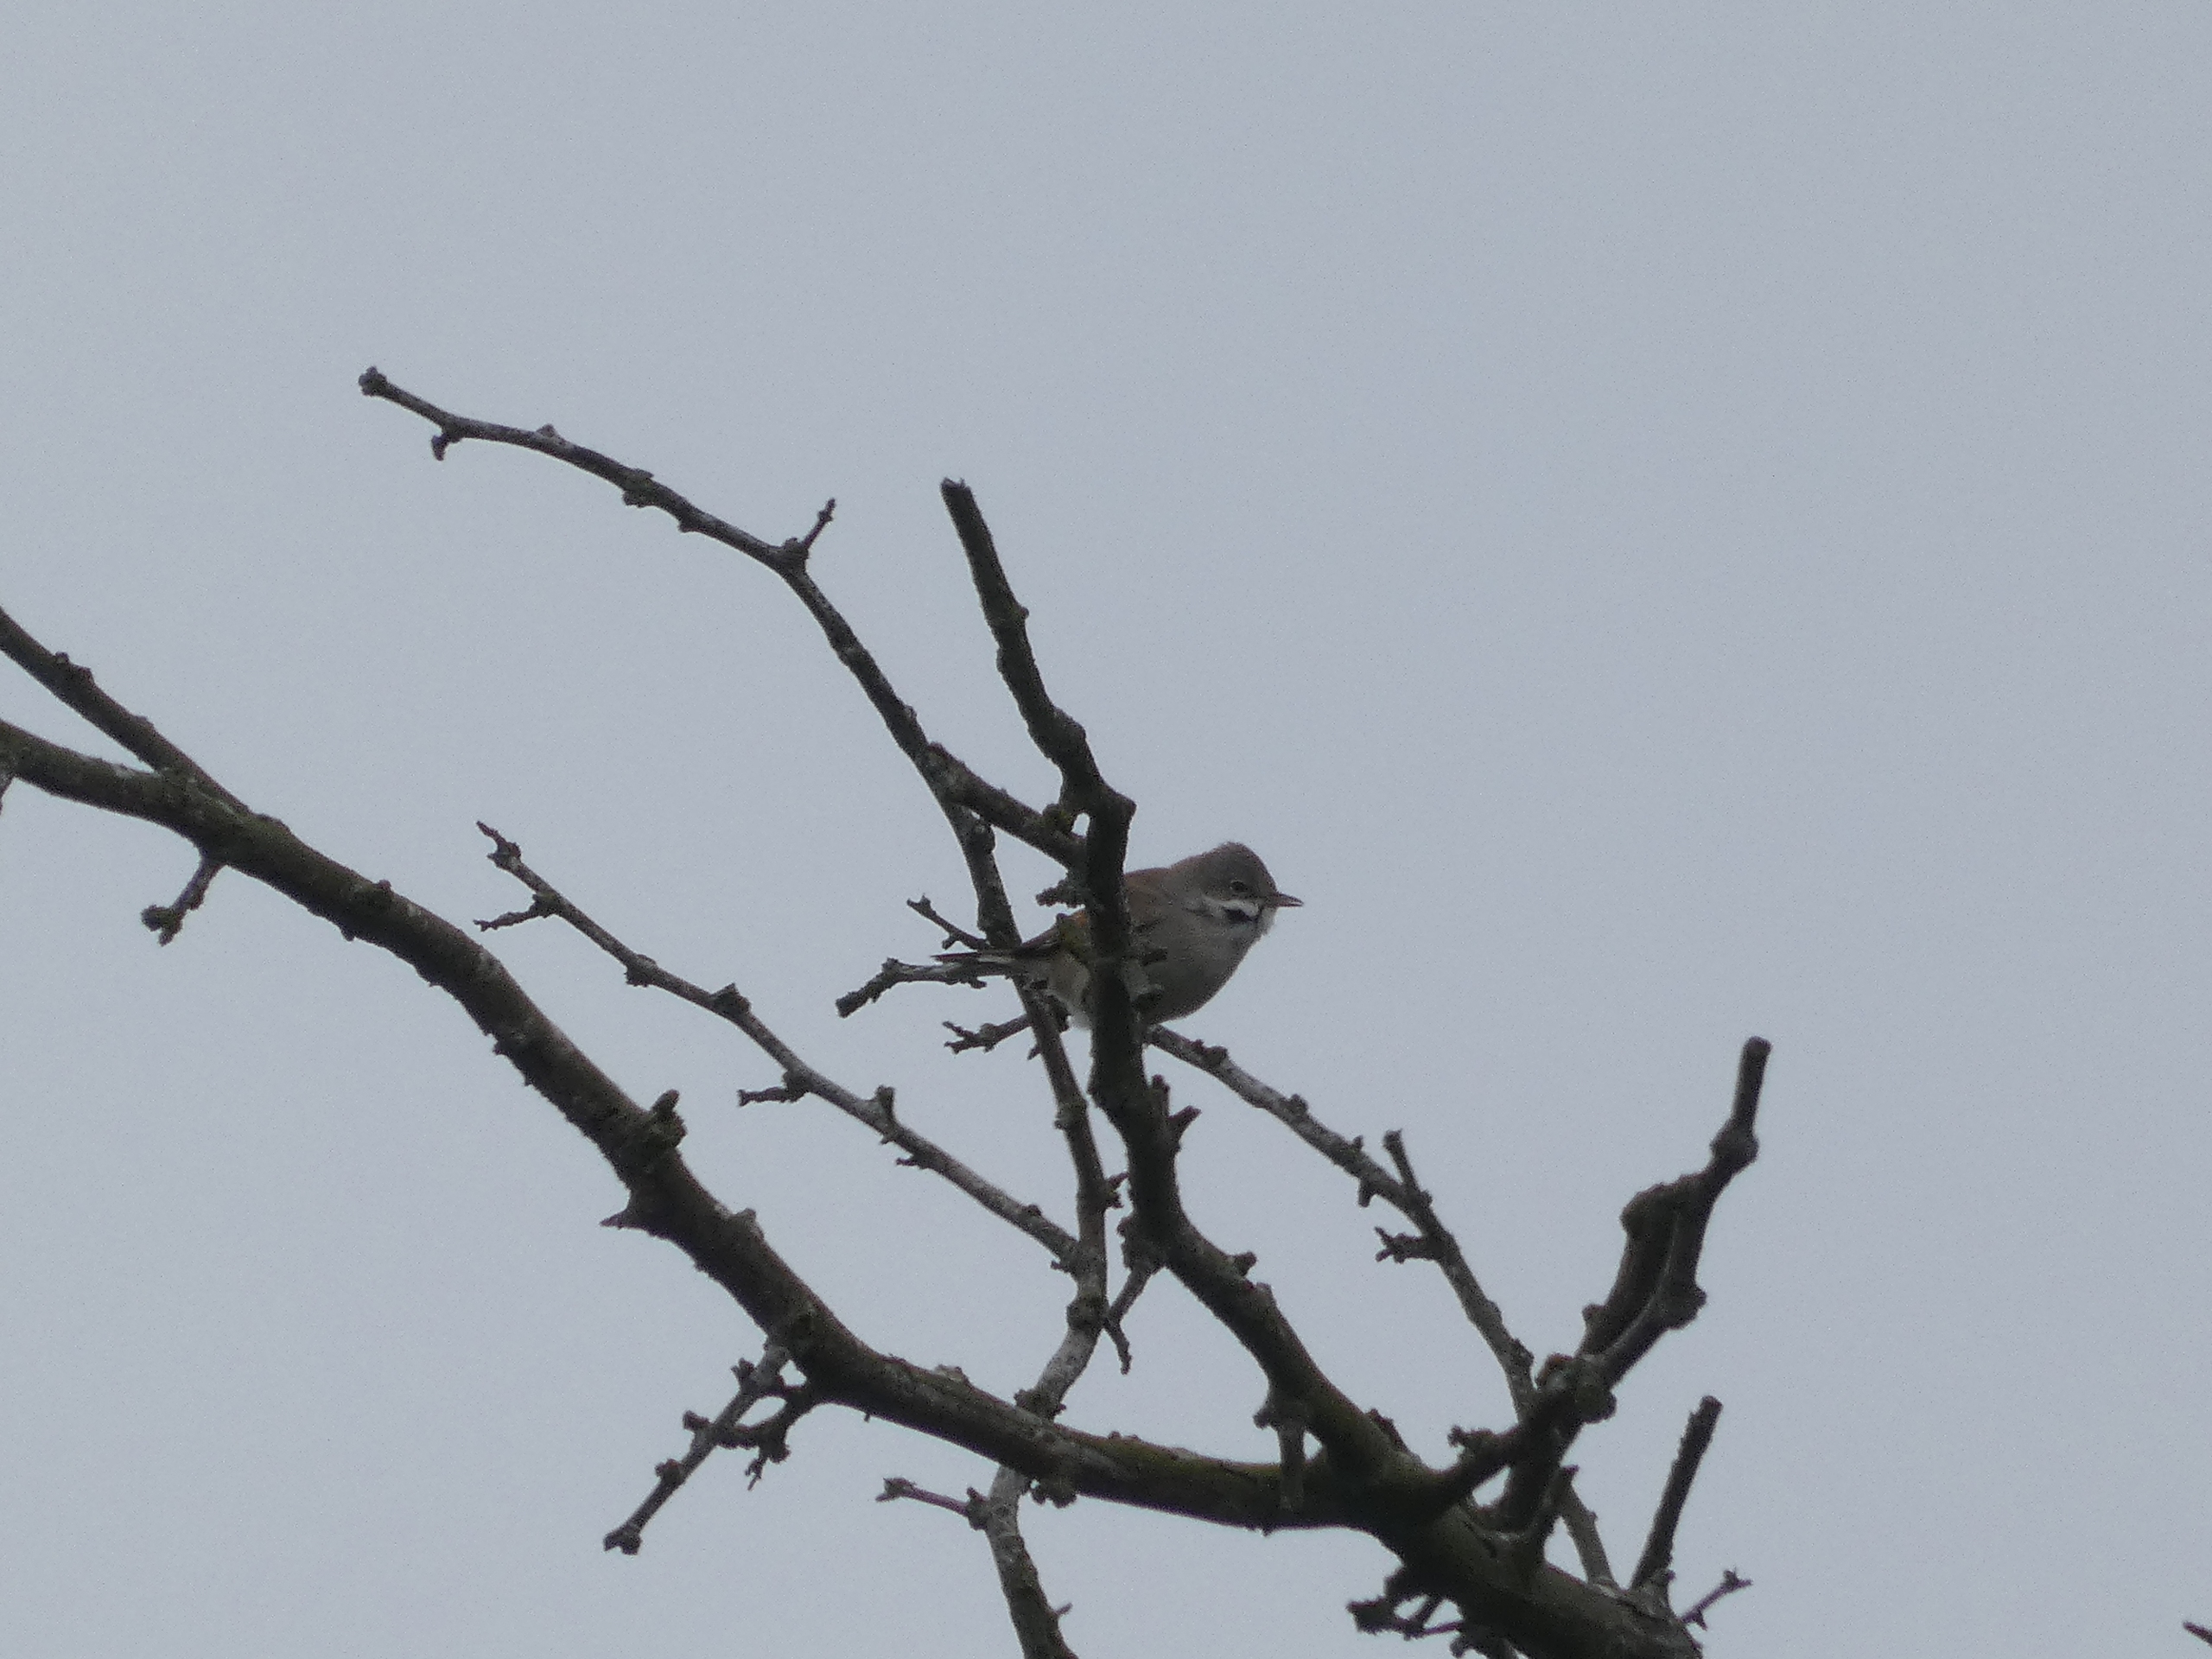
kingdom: Animalia
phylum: Chordata
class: Aves
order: Passeriformes
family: Sylviidae
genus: Sylvia
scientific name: Sylvia communis
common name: Tornsanger
